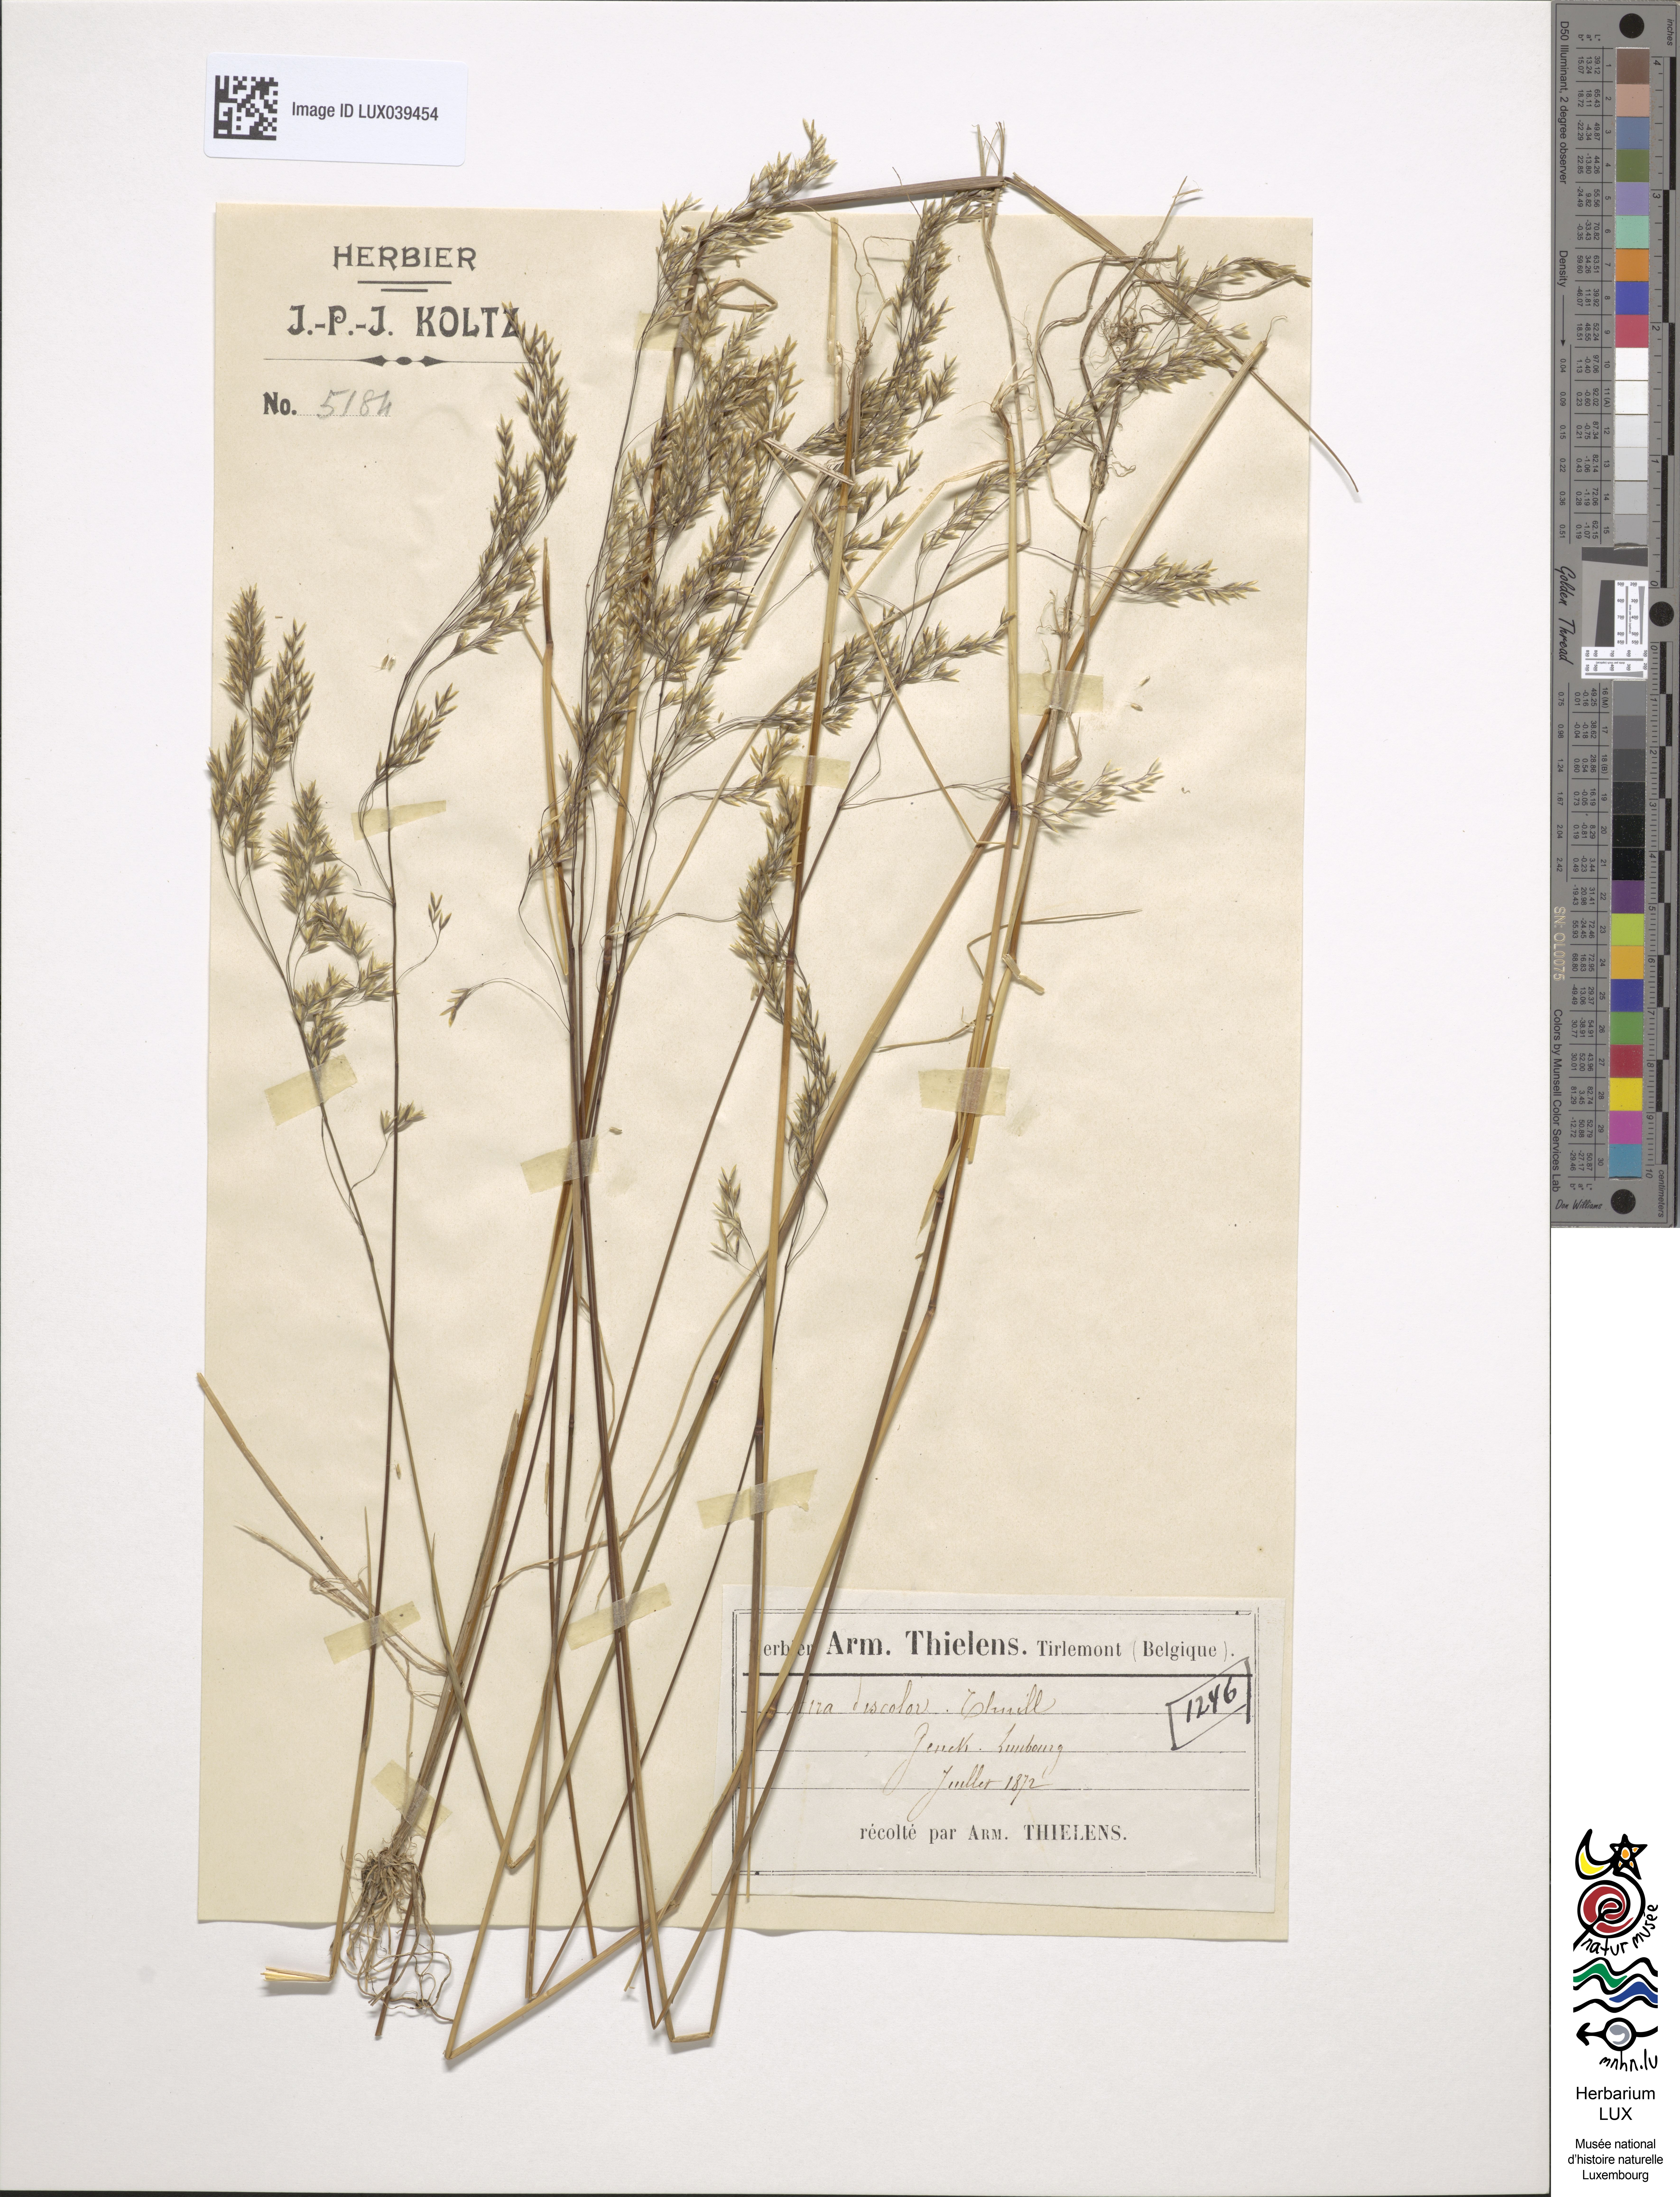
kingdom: Plantae
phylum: Tracheophyta
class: Liliopsida
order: Poales
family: Poaceae
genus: Deschampsia
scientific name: Deschampsia setacea
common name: Bog hair-grass
